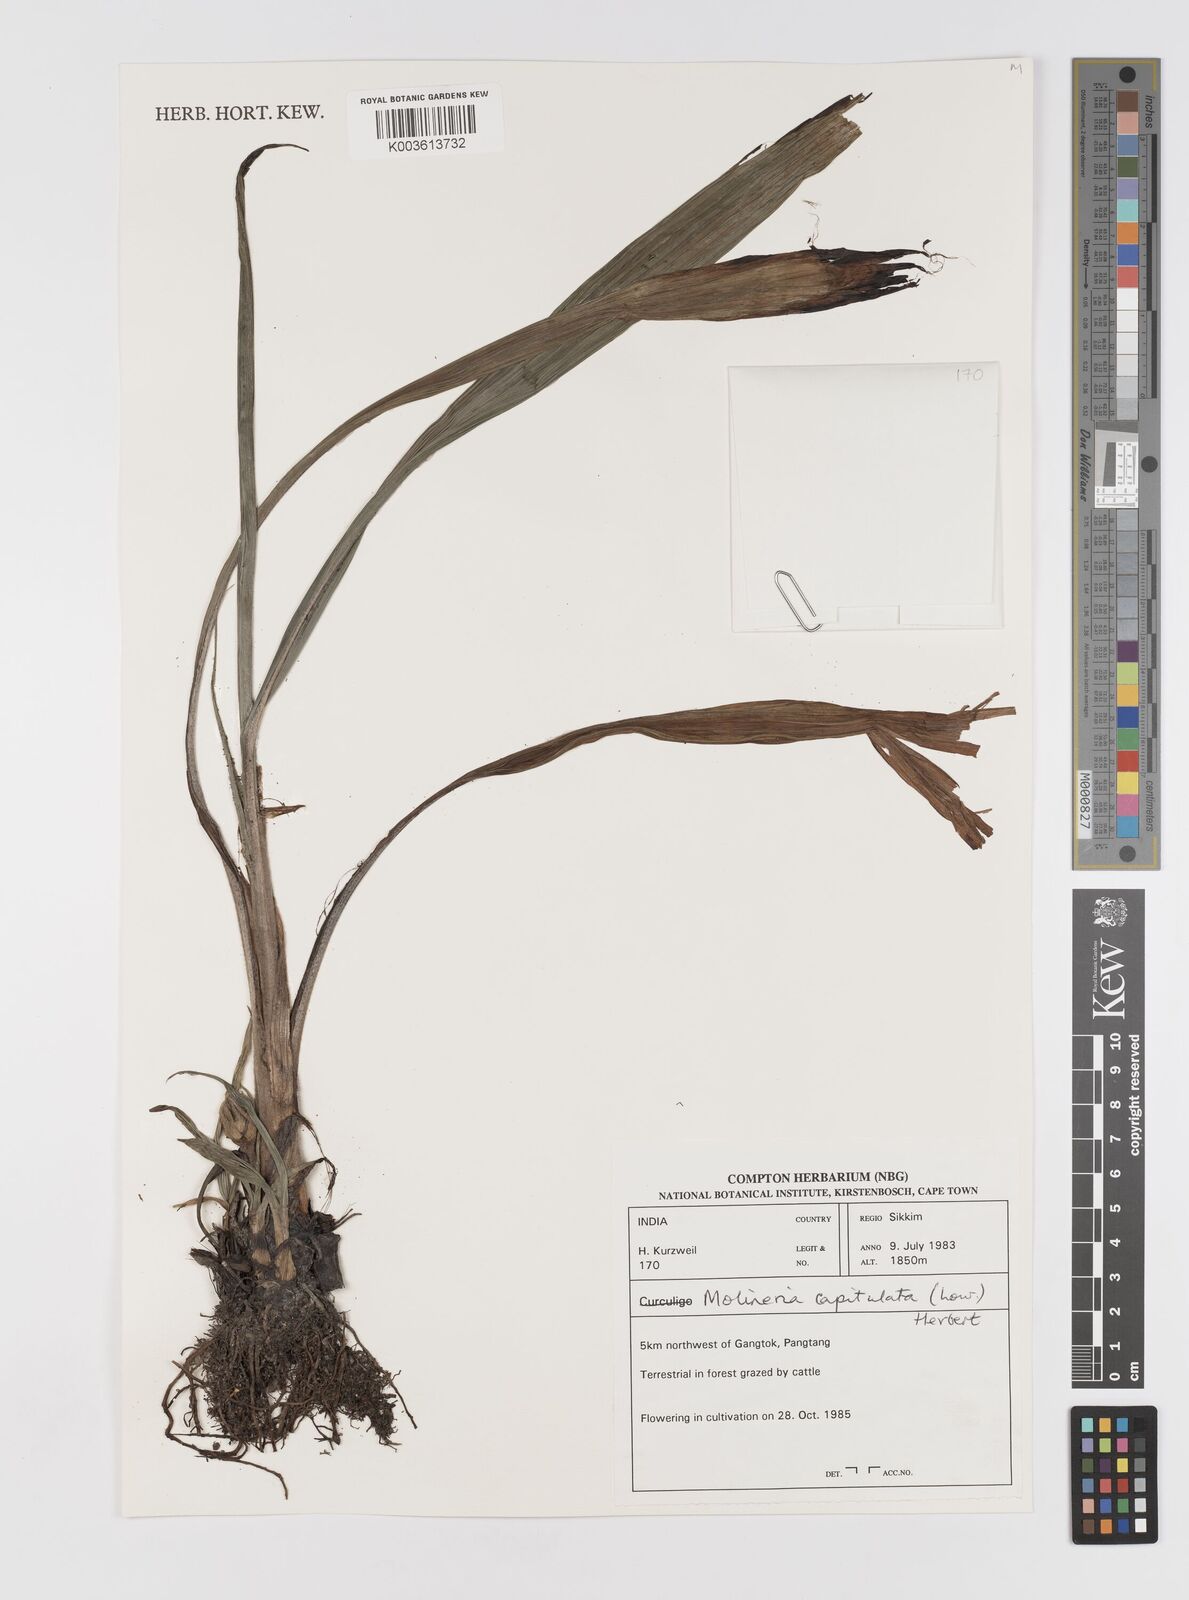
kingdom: Plantae
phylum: Tracheophyta
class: Liliopsida
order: Asparagales
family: Hypoxidaceae
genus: Curculigo
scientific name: Curculigo capitulata
